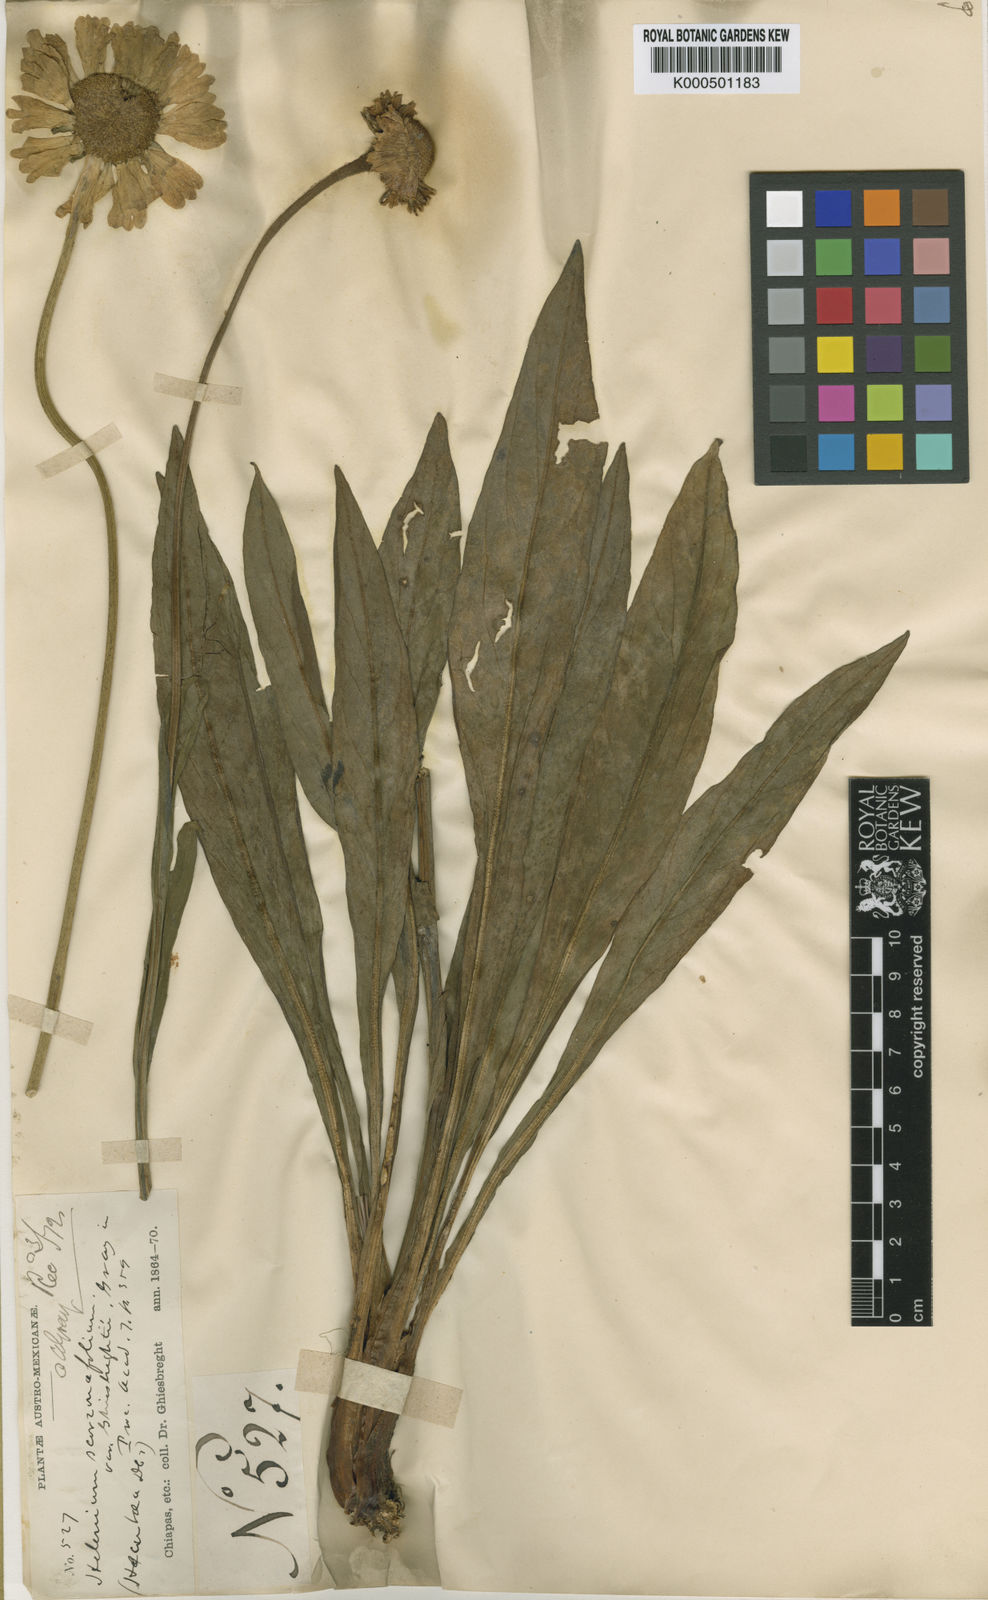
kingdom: Plantae
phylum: Tracheophyta
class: Magnoliopsida
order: Asterales
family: Asteraceae
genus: Helenium
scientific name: Helenium scorzonerifolium
